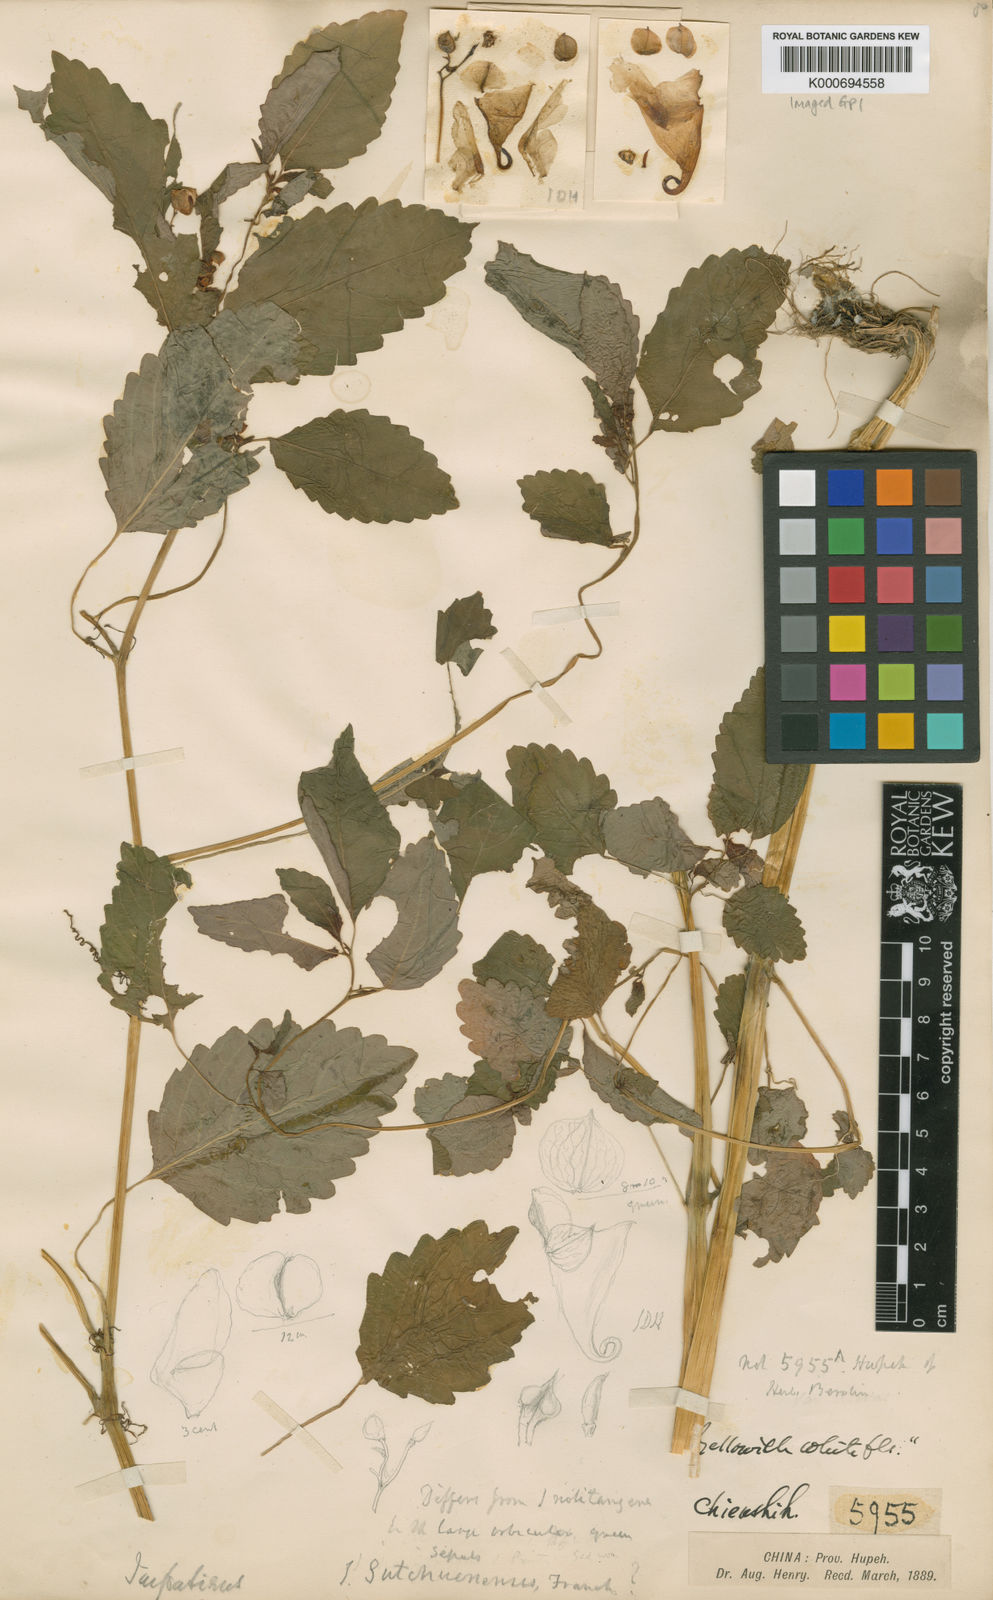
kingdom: Plantae
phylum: Tracheophyta
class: Magnoliopsida
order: Ericales
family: Balsaminaceae
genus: Impatiens
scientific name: Impatiens sutchuenensis
